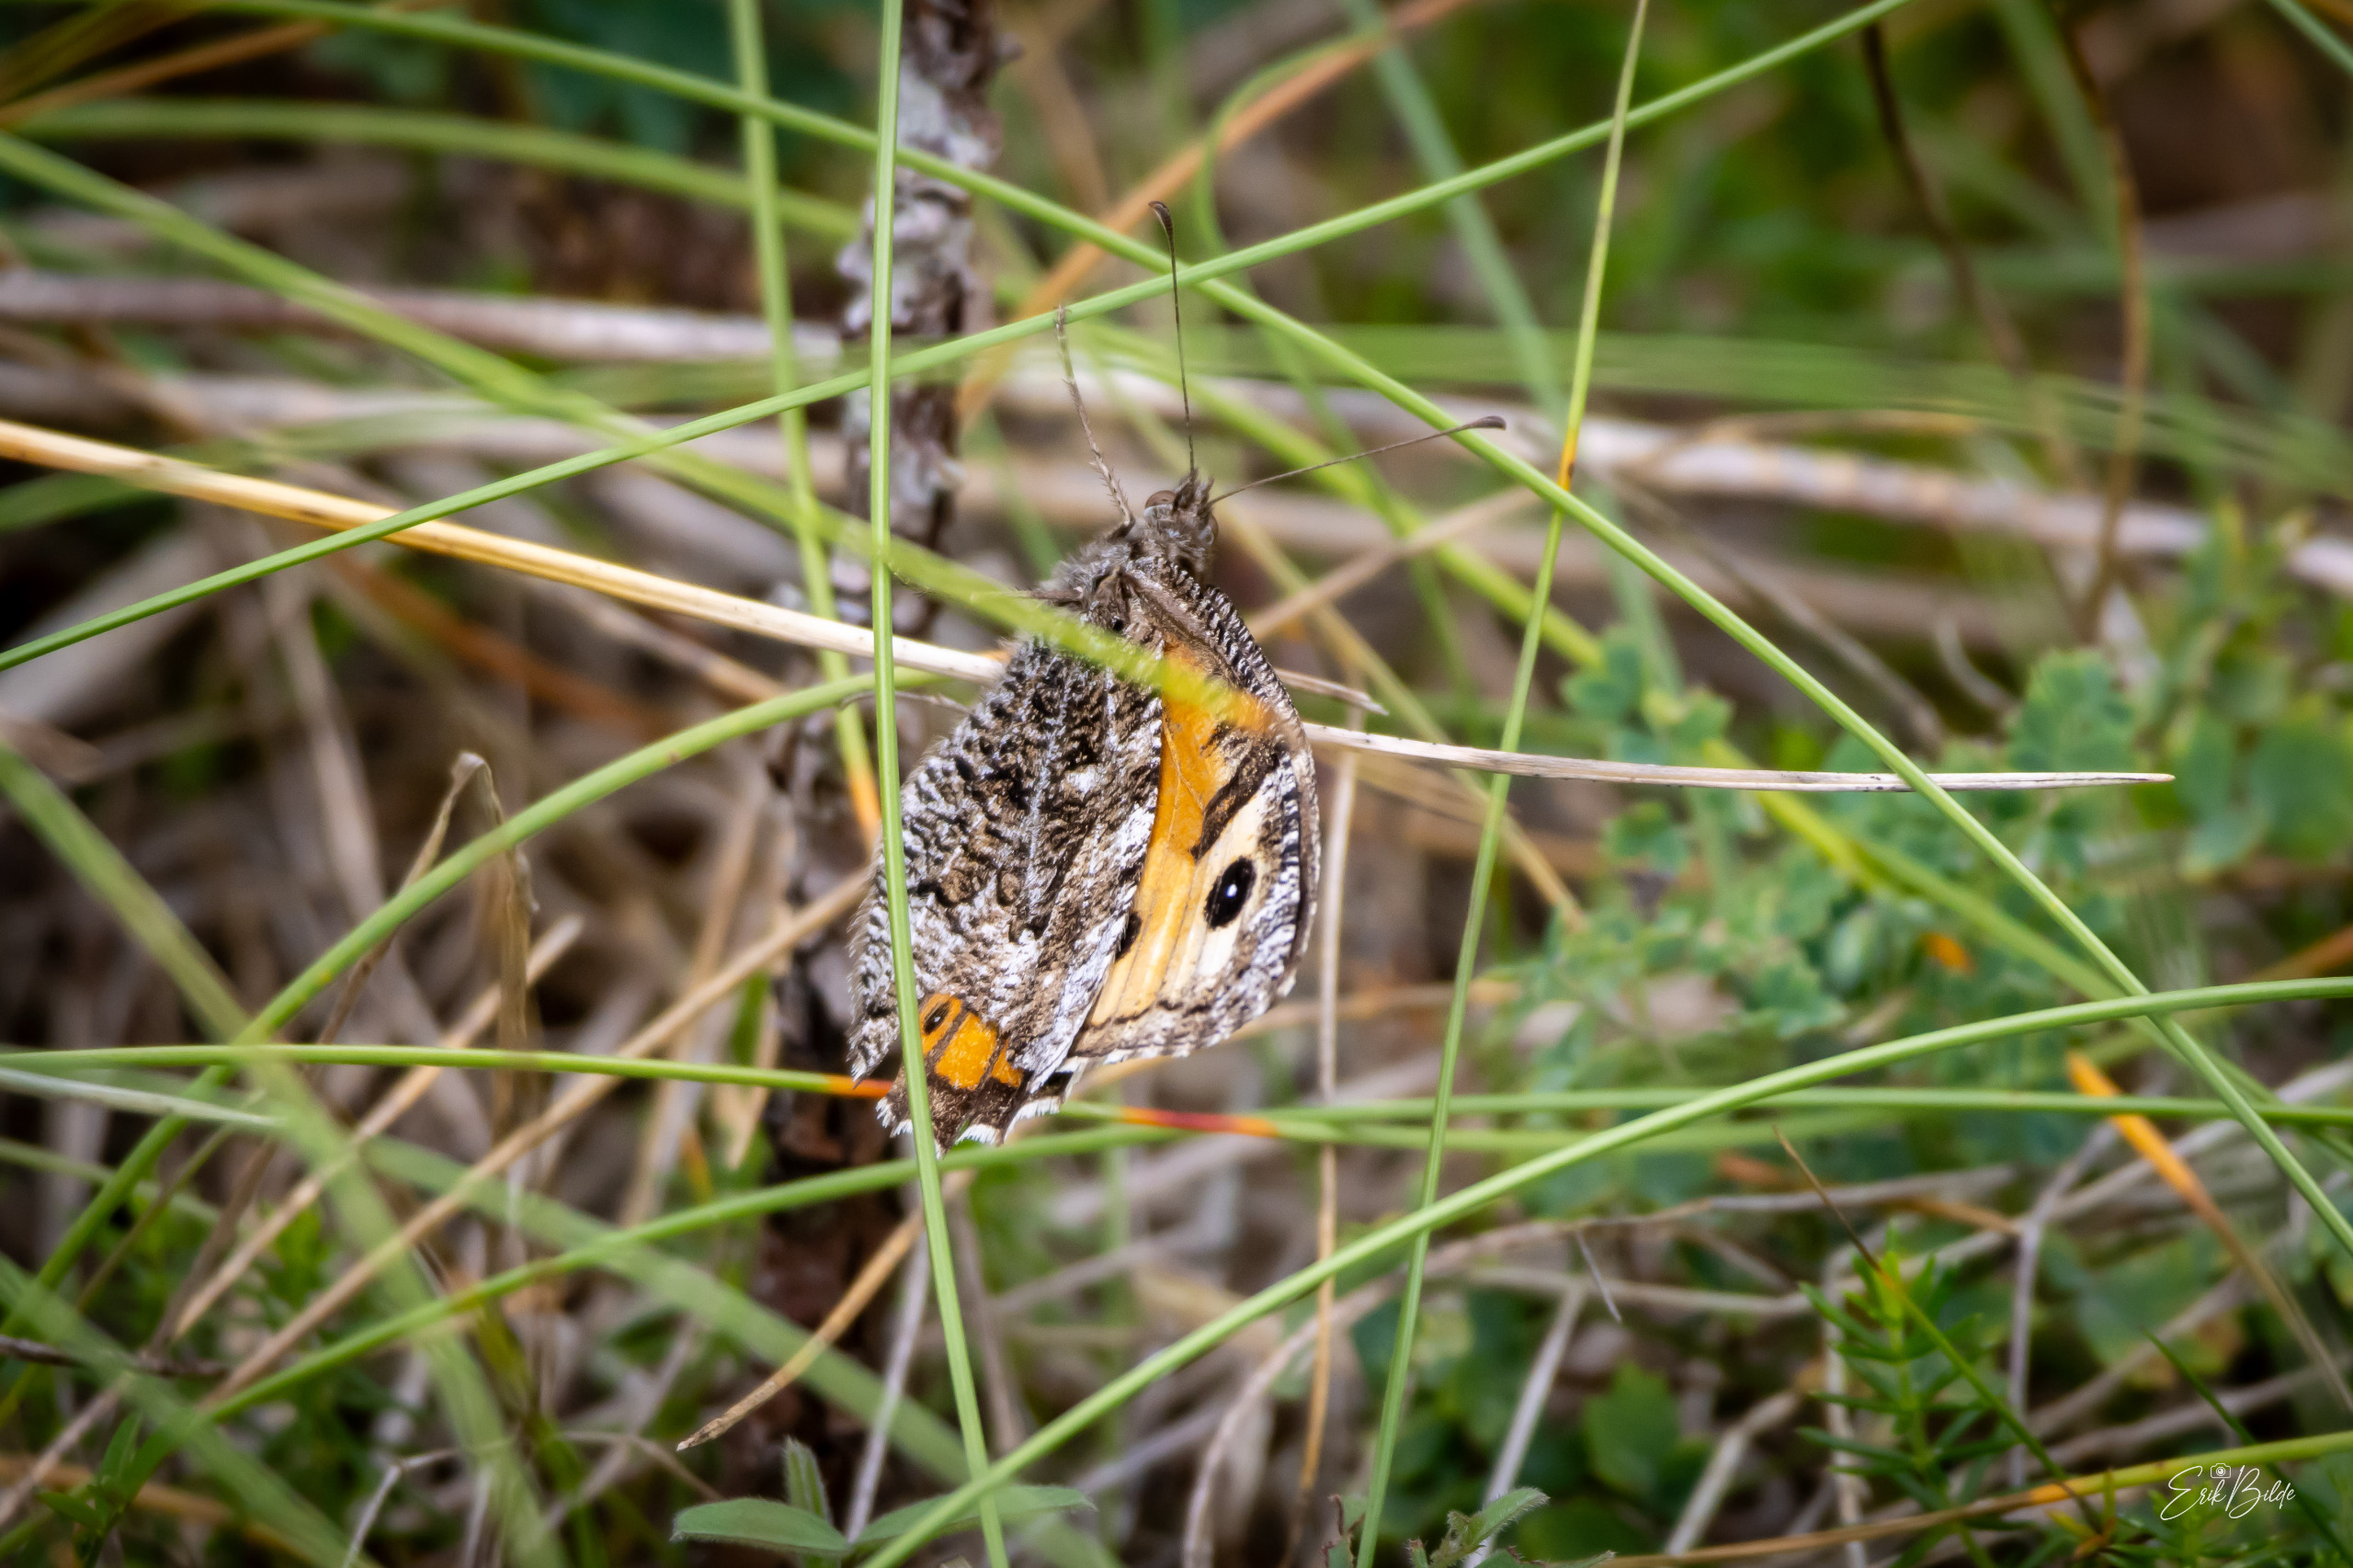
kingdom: Animalia
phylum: Arthropoda
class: Insecta
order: Lepidoptera
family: Nymphalidae
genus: Hipparchia
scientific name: Hipparchia semele
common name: Sandrandøje
